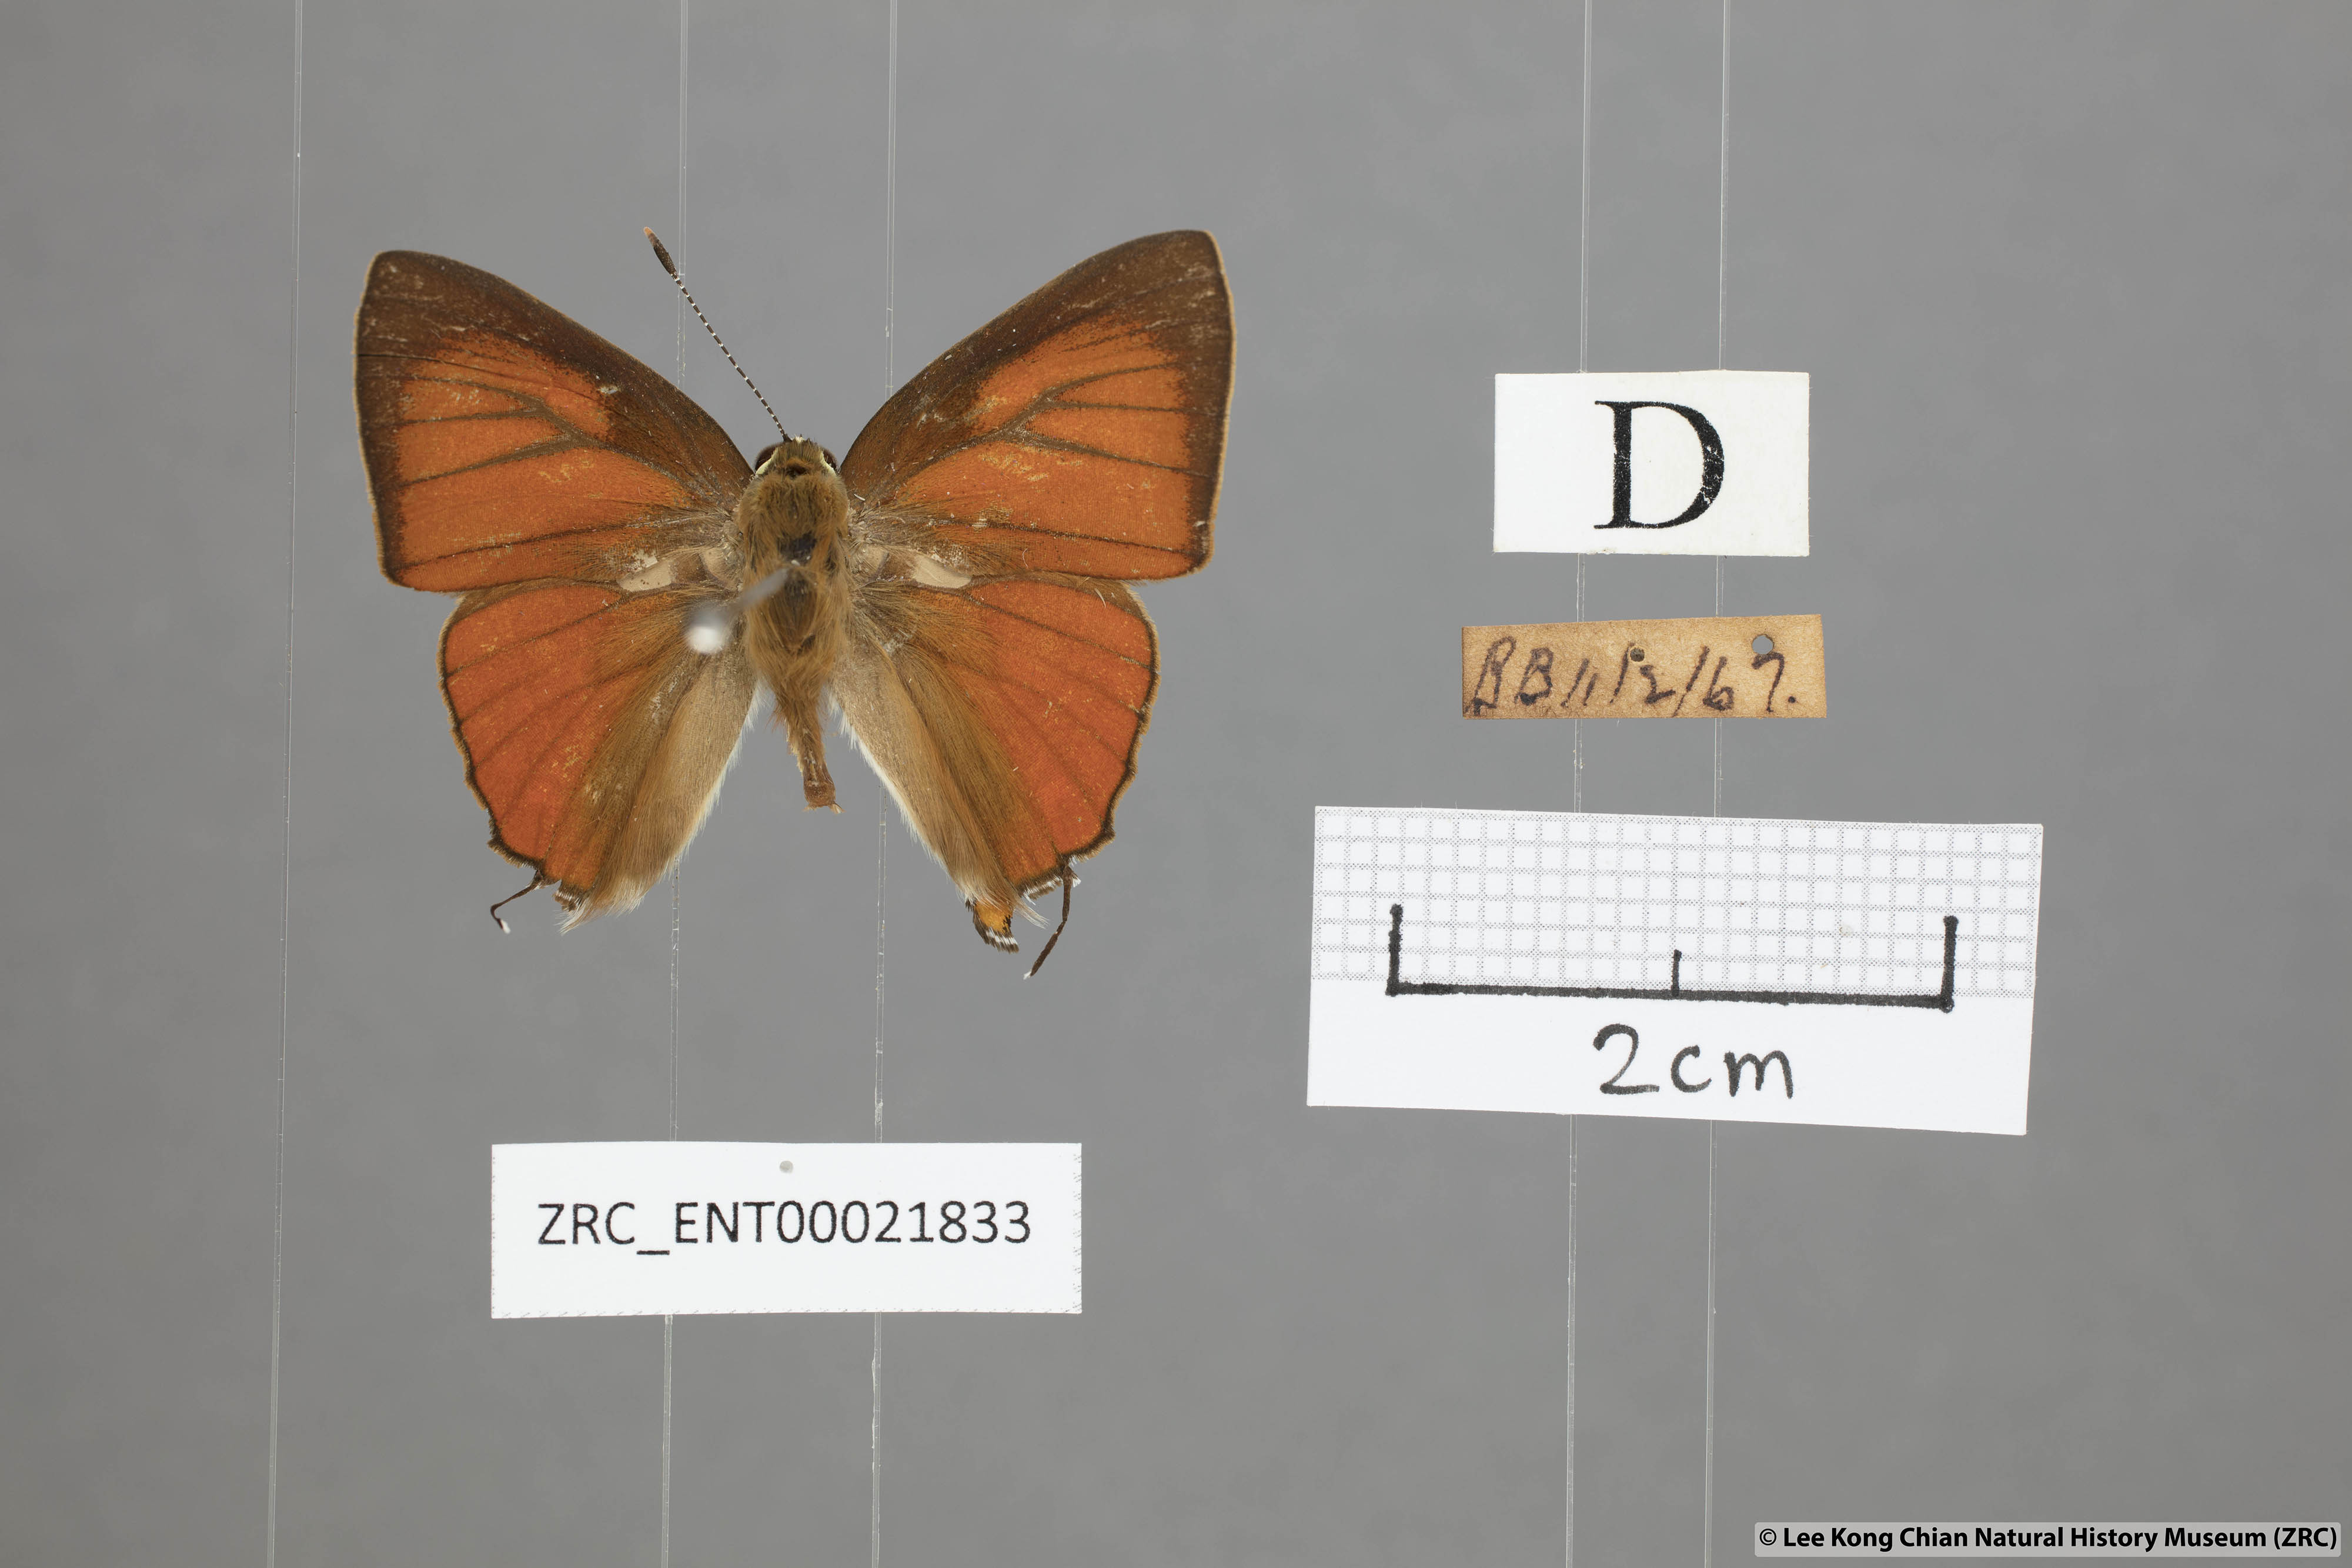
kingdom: Animalia
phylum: Arthropoda
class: Insecta
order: Lepidoptera
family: Lycaenidae
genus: Rapala
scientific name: Rapala iarbas
